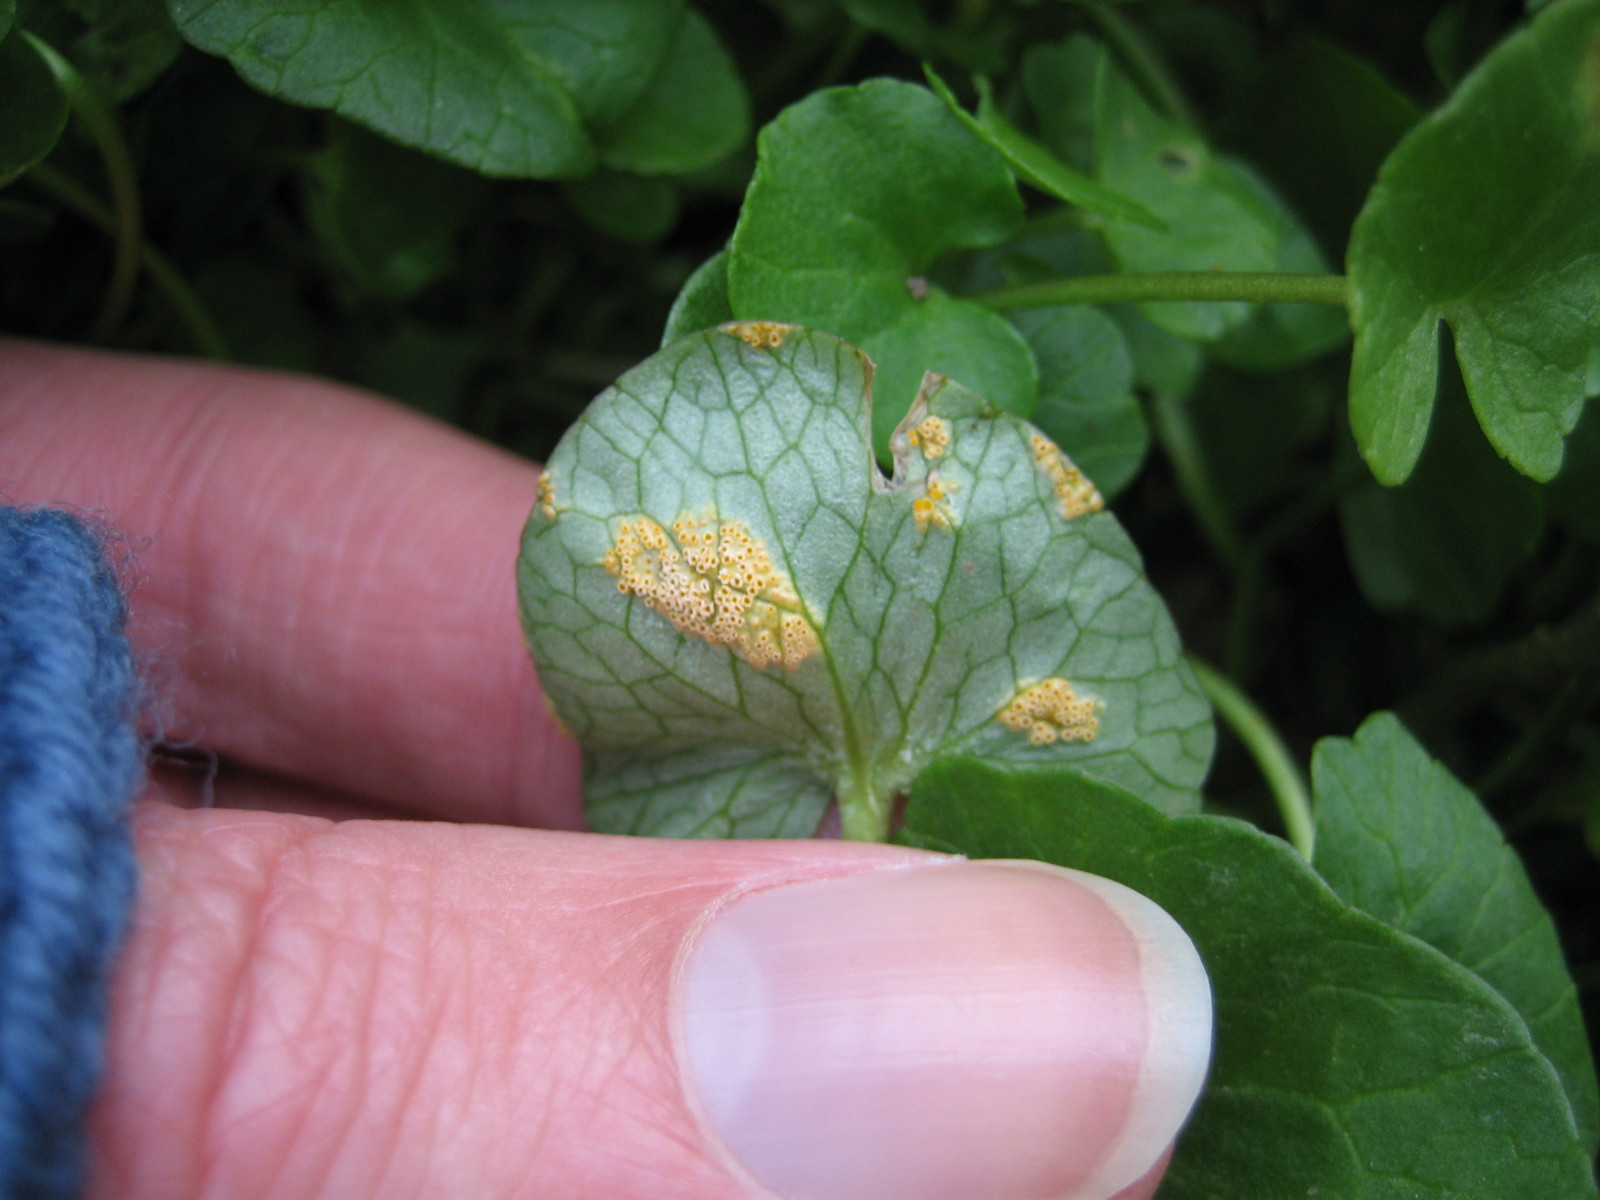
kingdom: Fungi
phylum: Basidiomycota
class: Pucciniomycetes
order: Pucciniales
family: Pucciniaceae
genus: Uromyces
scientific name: Uromyces dactylidis
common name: ranunkel-encellerust
